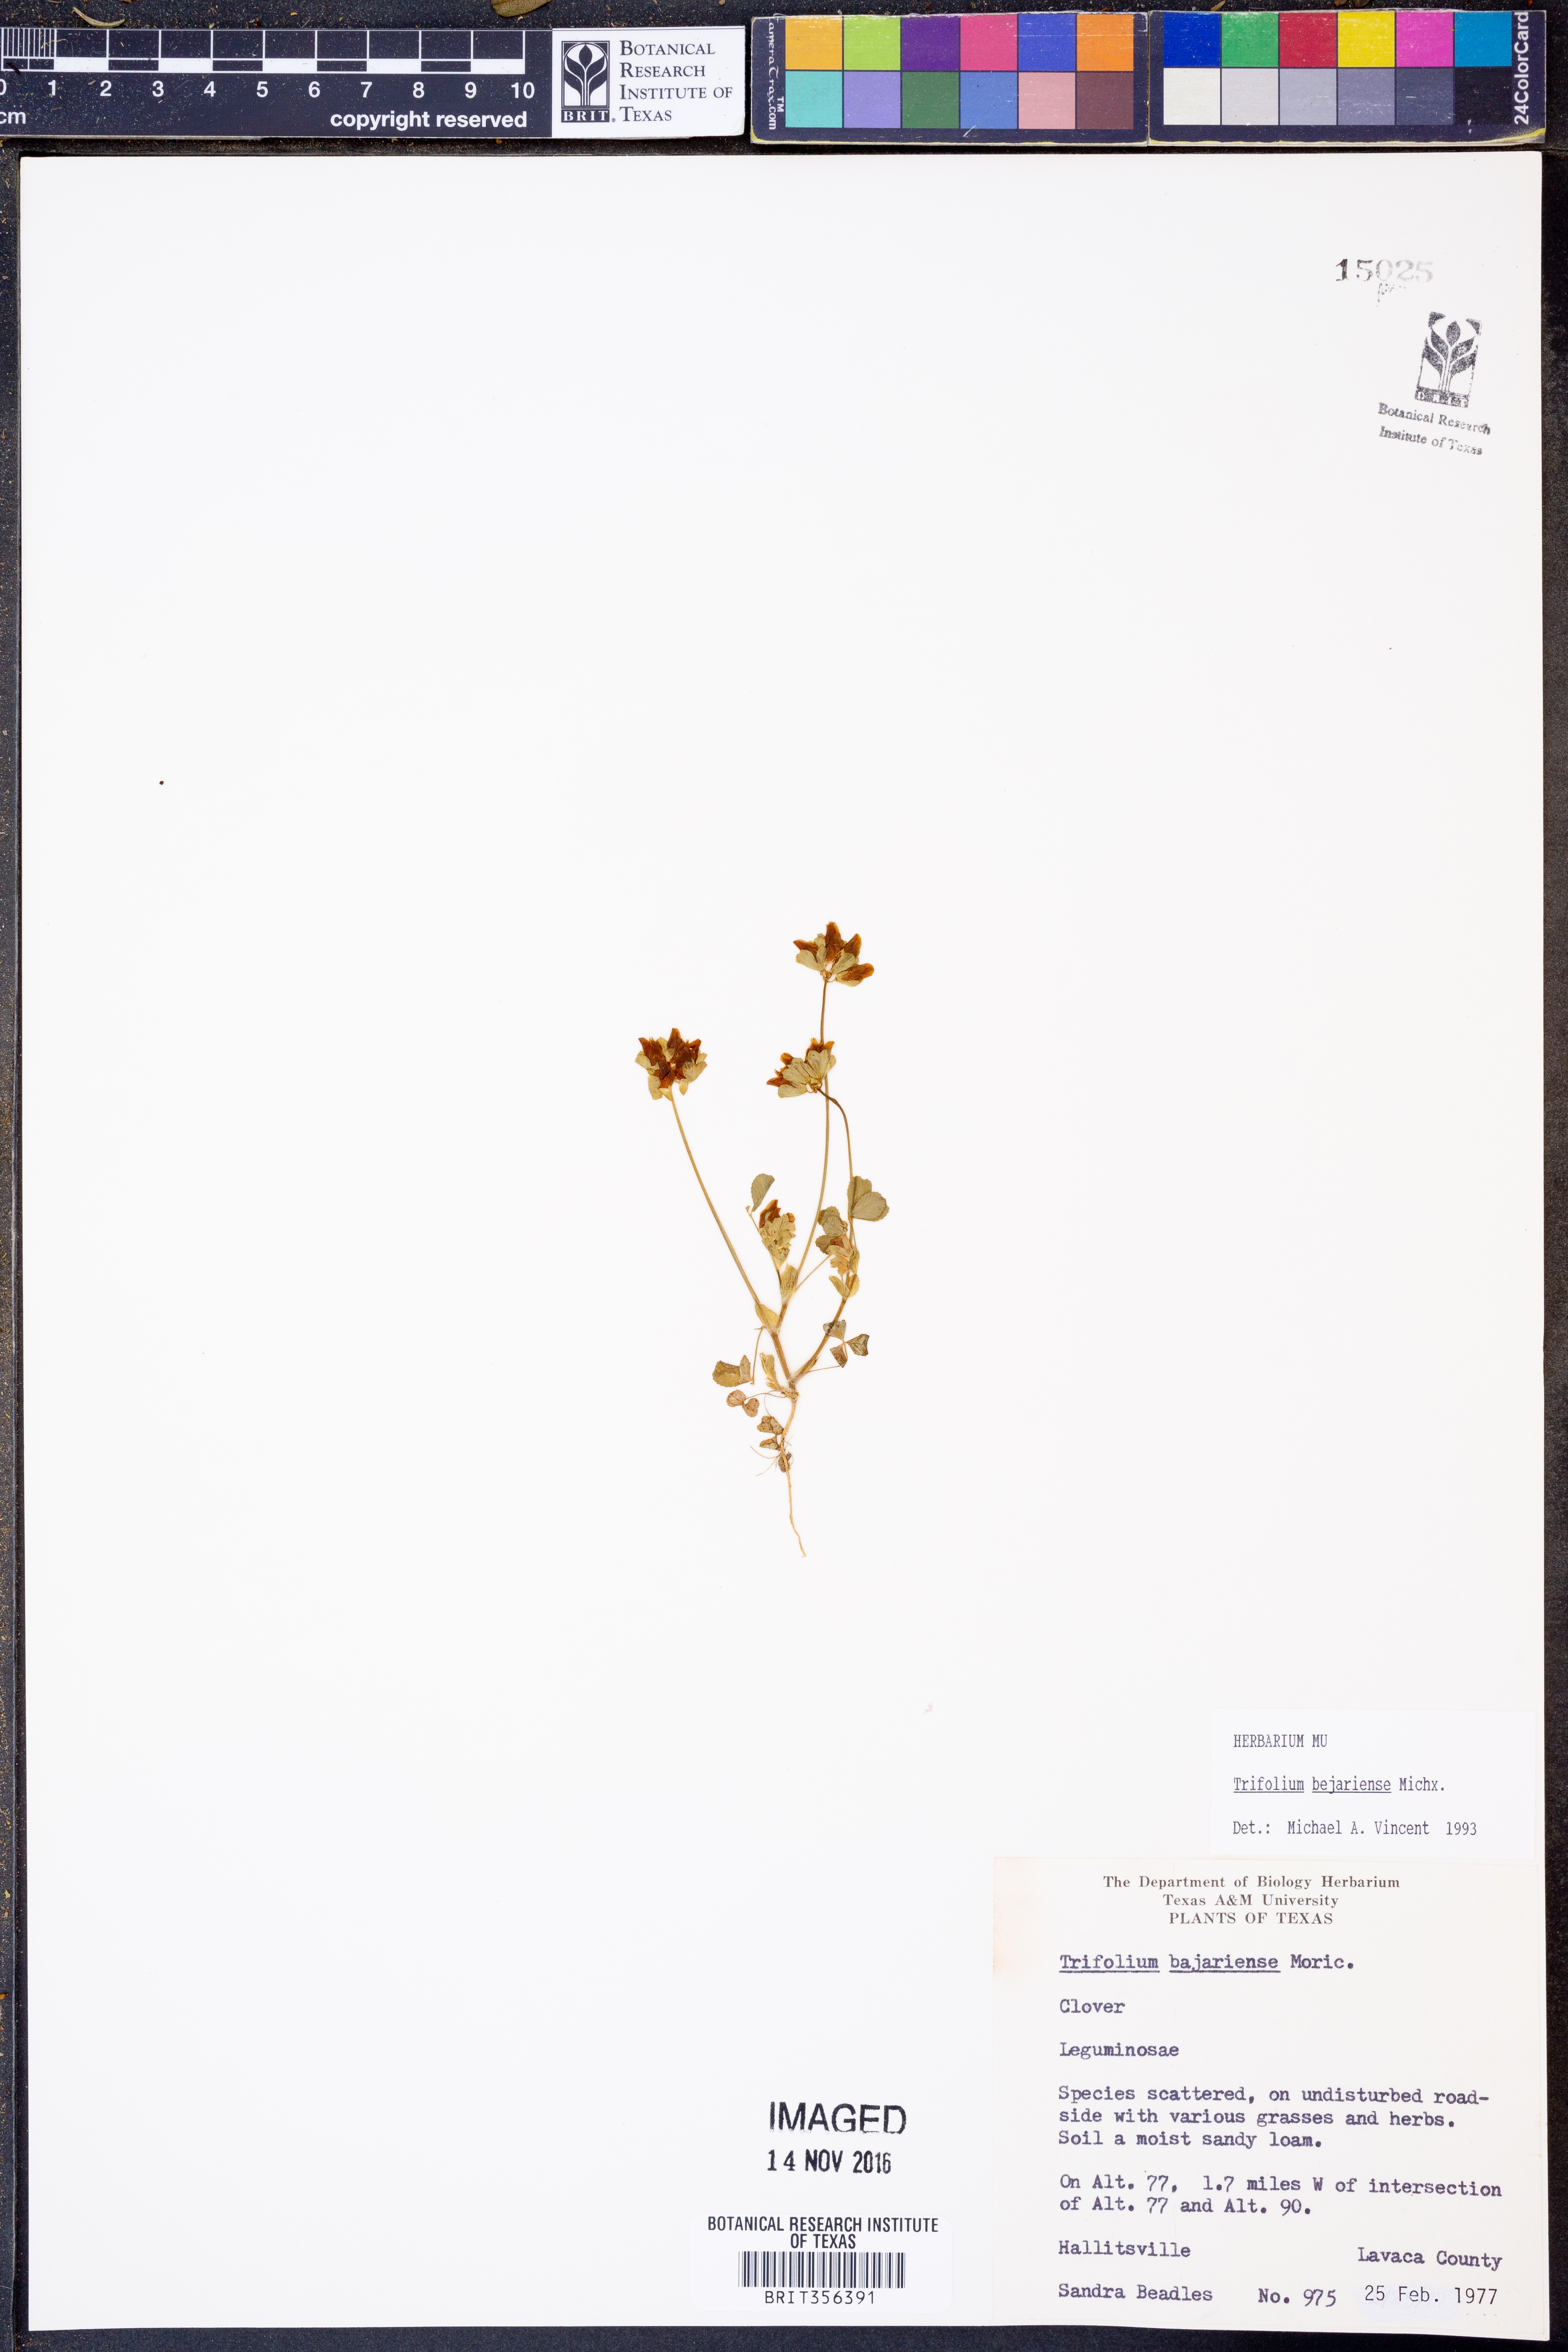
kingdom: Plantae
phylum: Tracheophyta
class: Magnoliopsida
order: Fabales
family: Fabaceae
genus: Trifolium
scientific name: Trifolium bejariense
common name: Bejar clover
